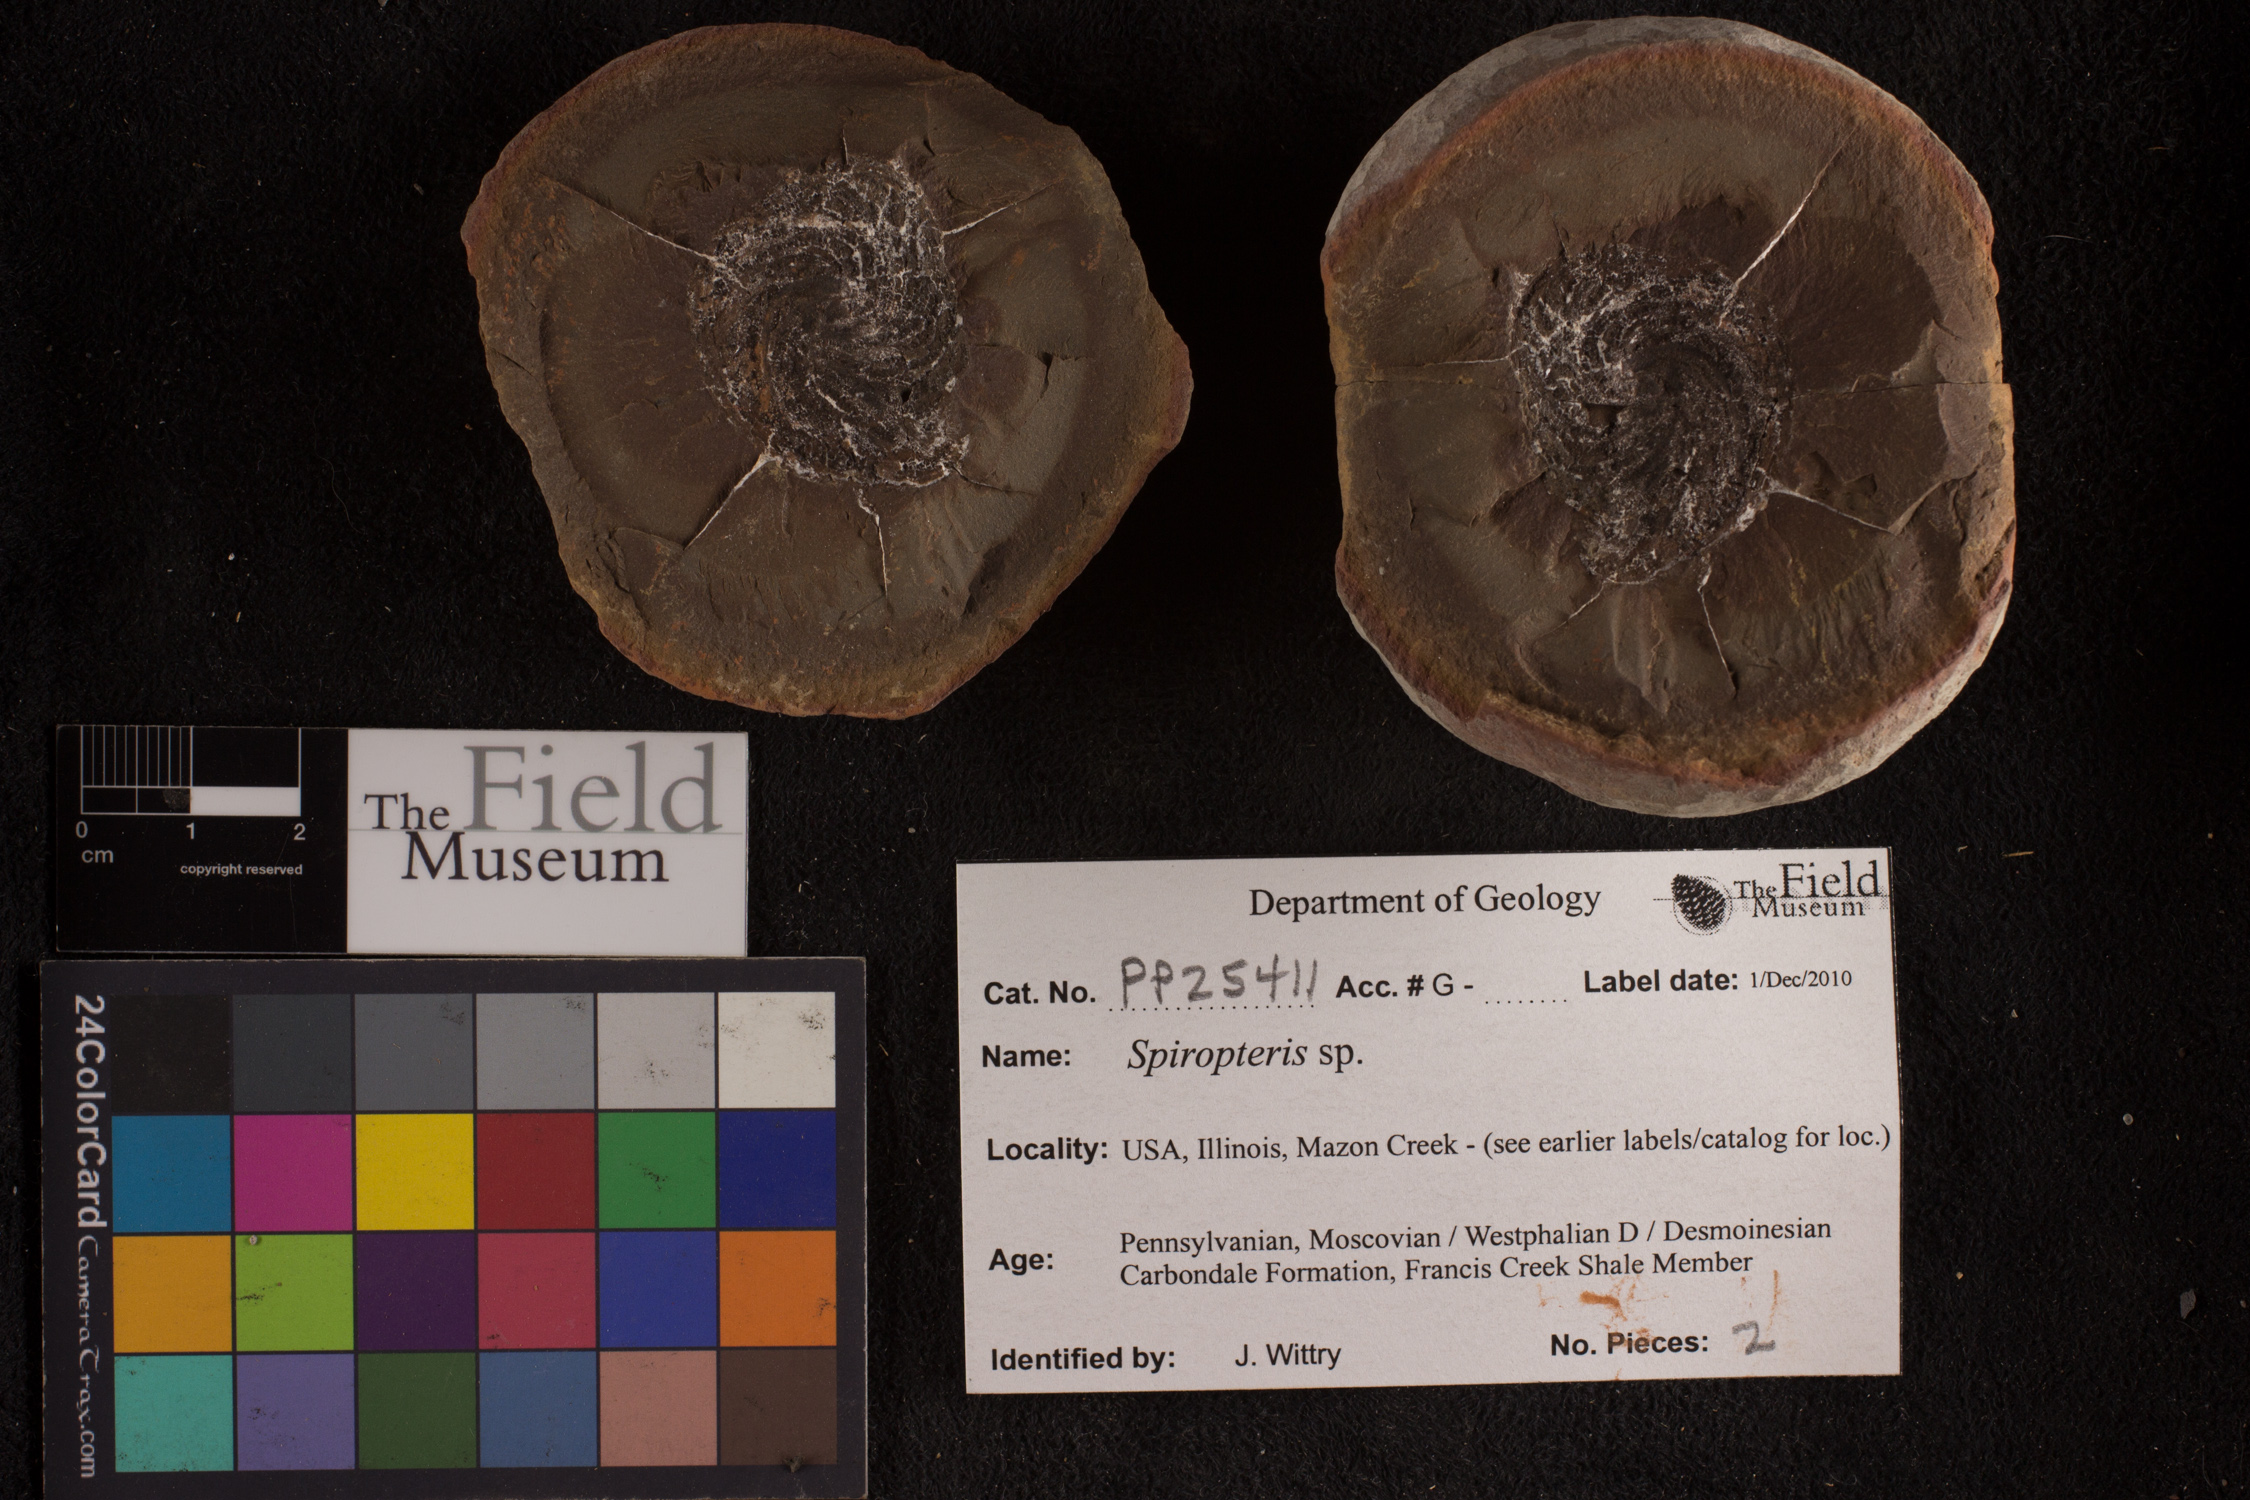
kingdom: Plantae
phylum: Tracheophyta
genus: Spiropteris
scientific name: Spiropteris
